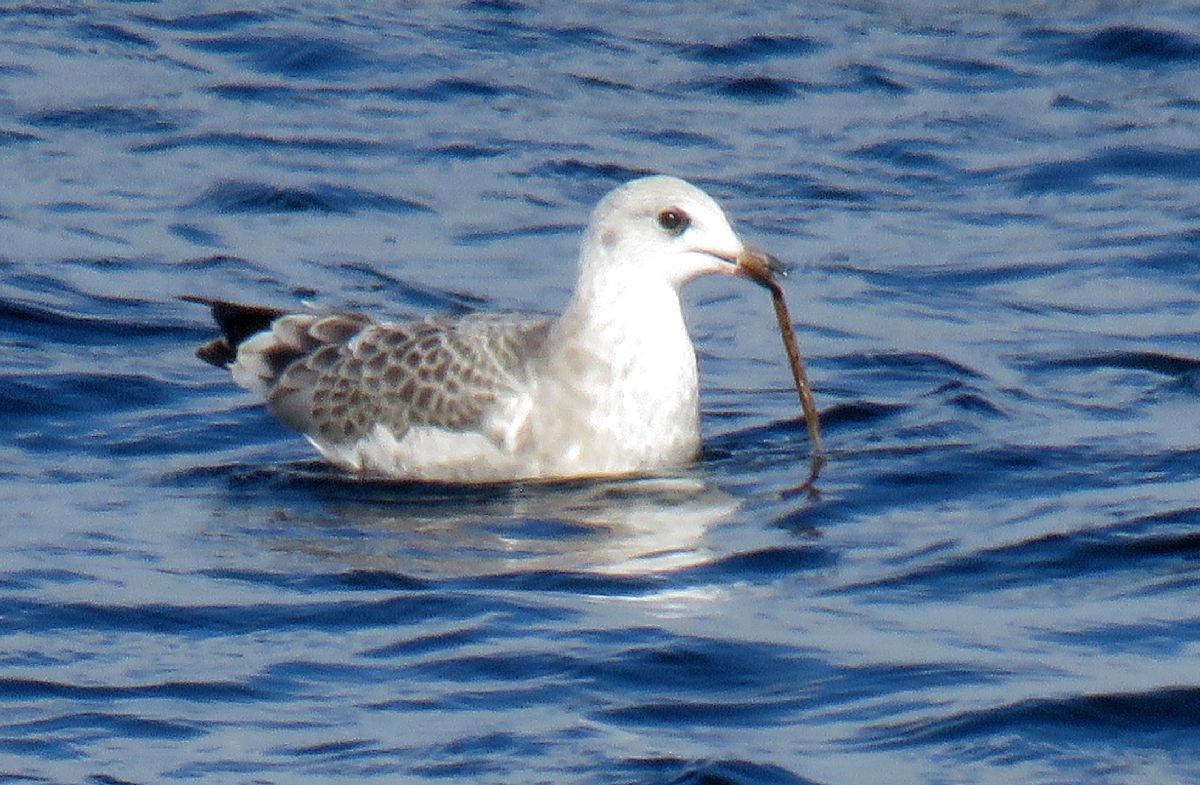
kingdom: Animalia
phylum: Chordata
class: Aves
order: Charadriiformes
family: Laridae
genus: Larus
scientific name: Larus canus
